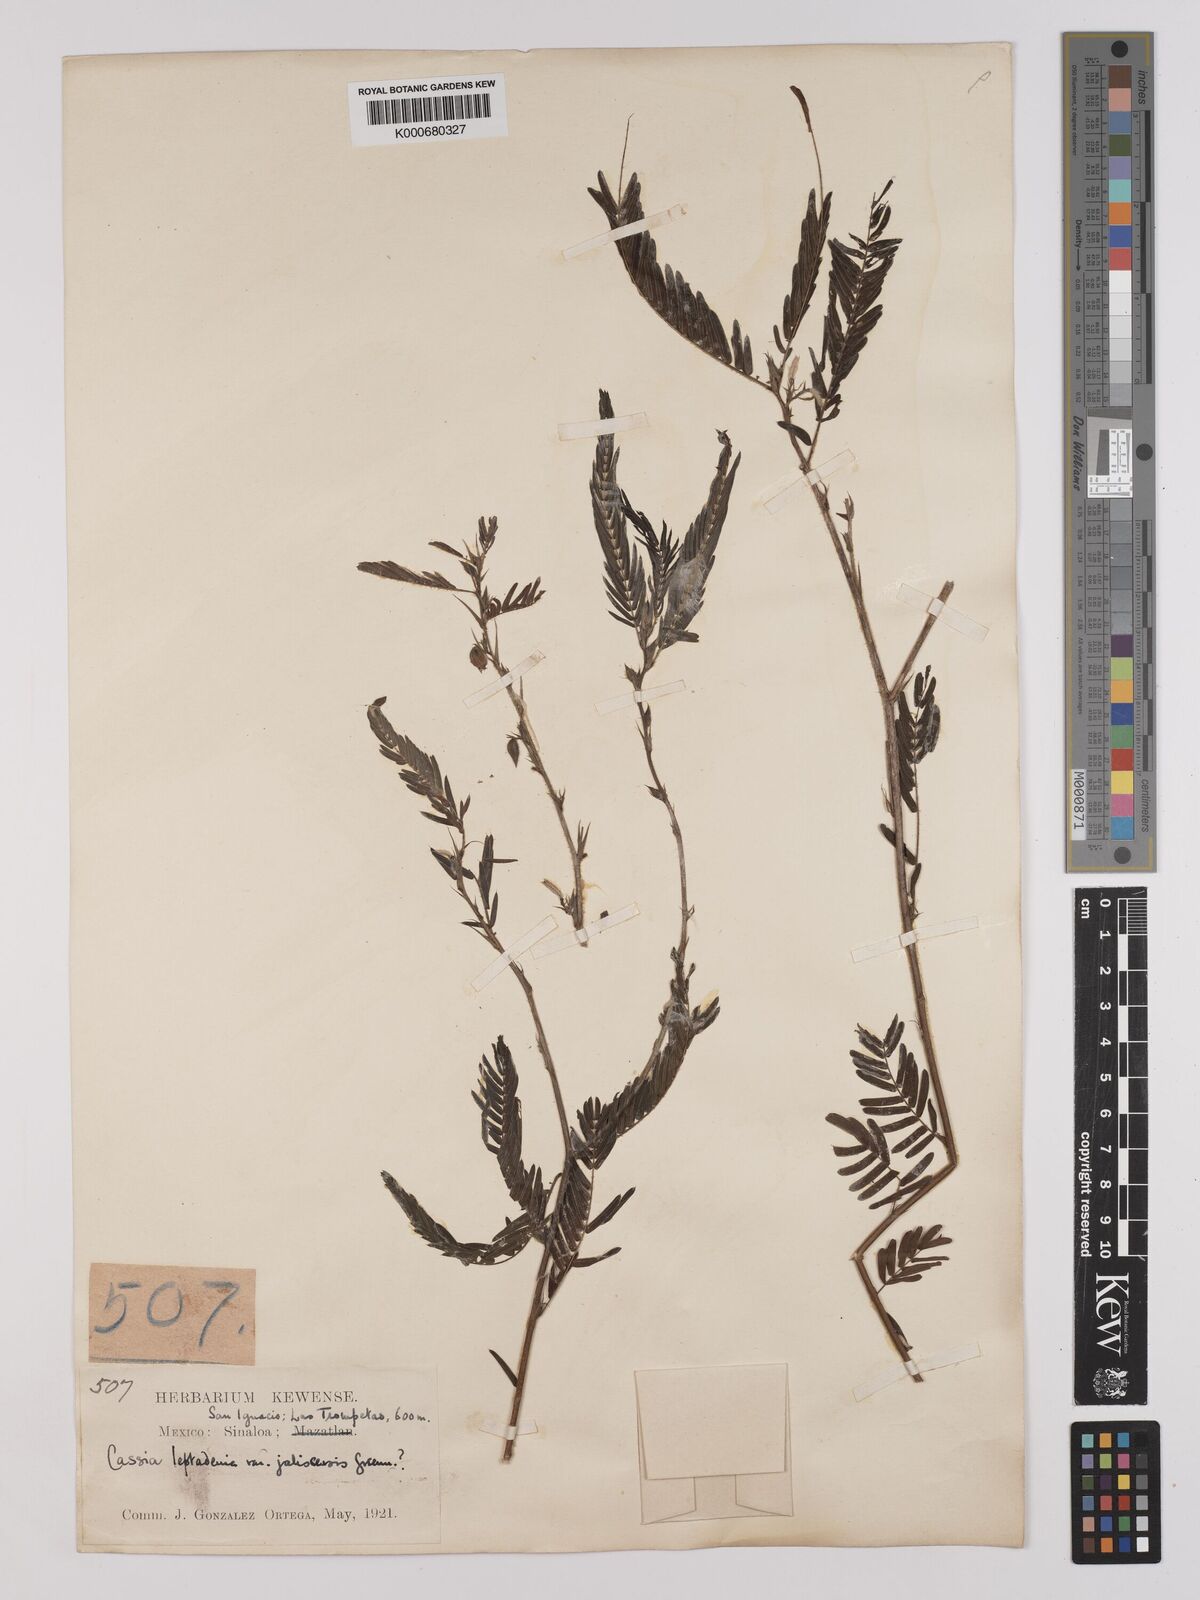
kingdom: Plantae
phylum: Tracheophyta
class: Magnoliopsida
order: Fabales
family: Fabaceae
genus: Chamaecrista
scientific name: Chamaecrista nictitans
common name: Sensitive cassia
